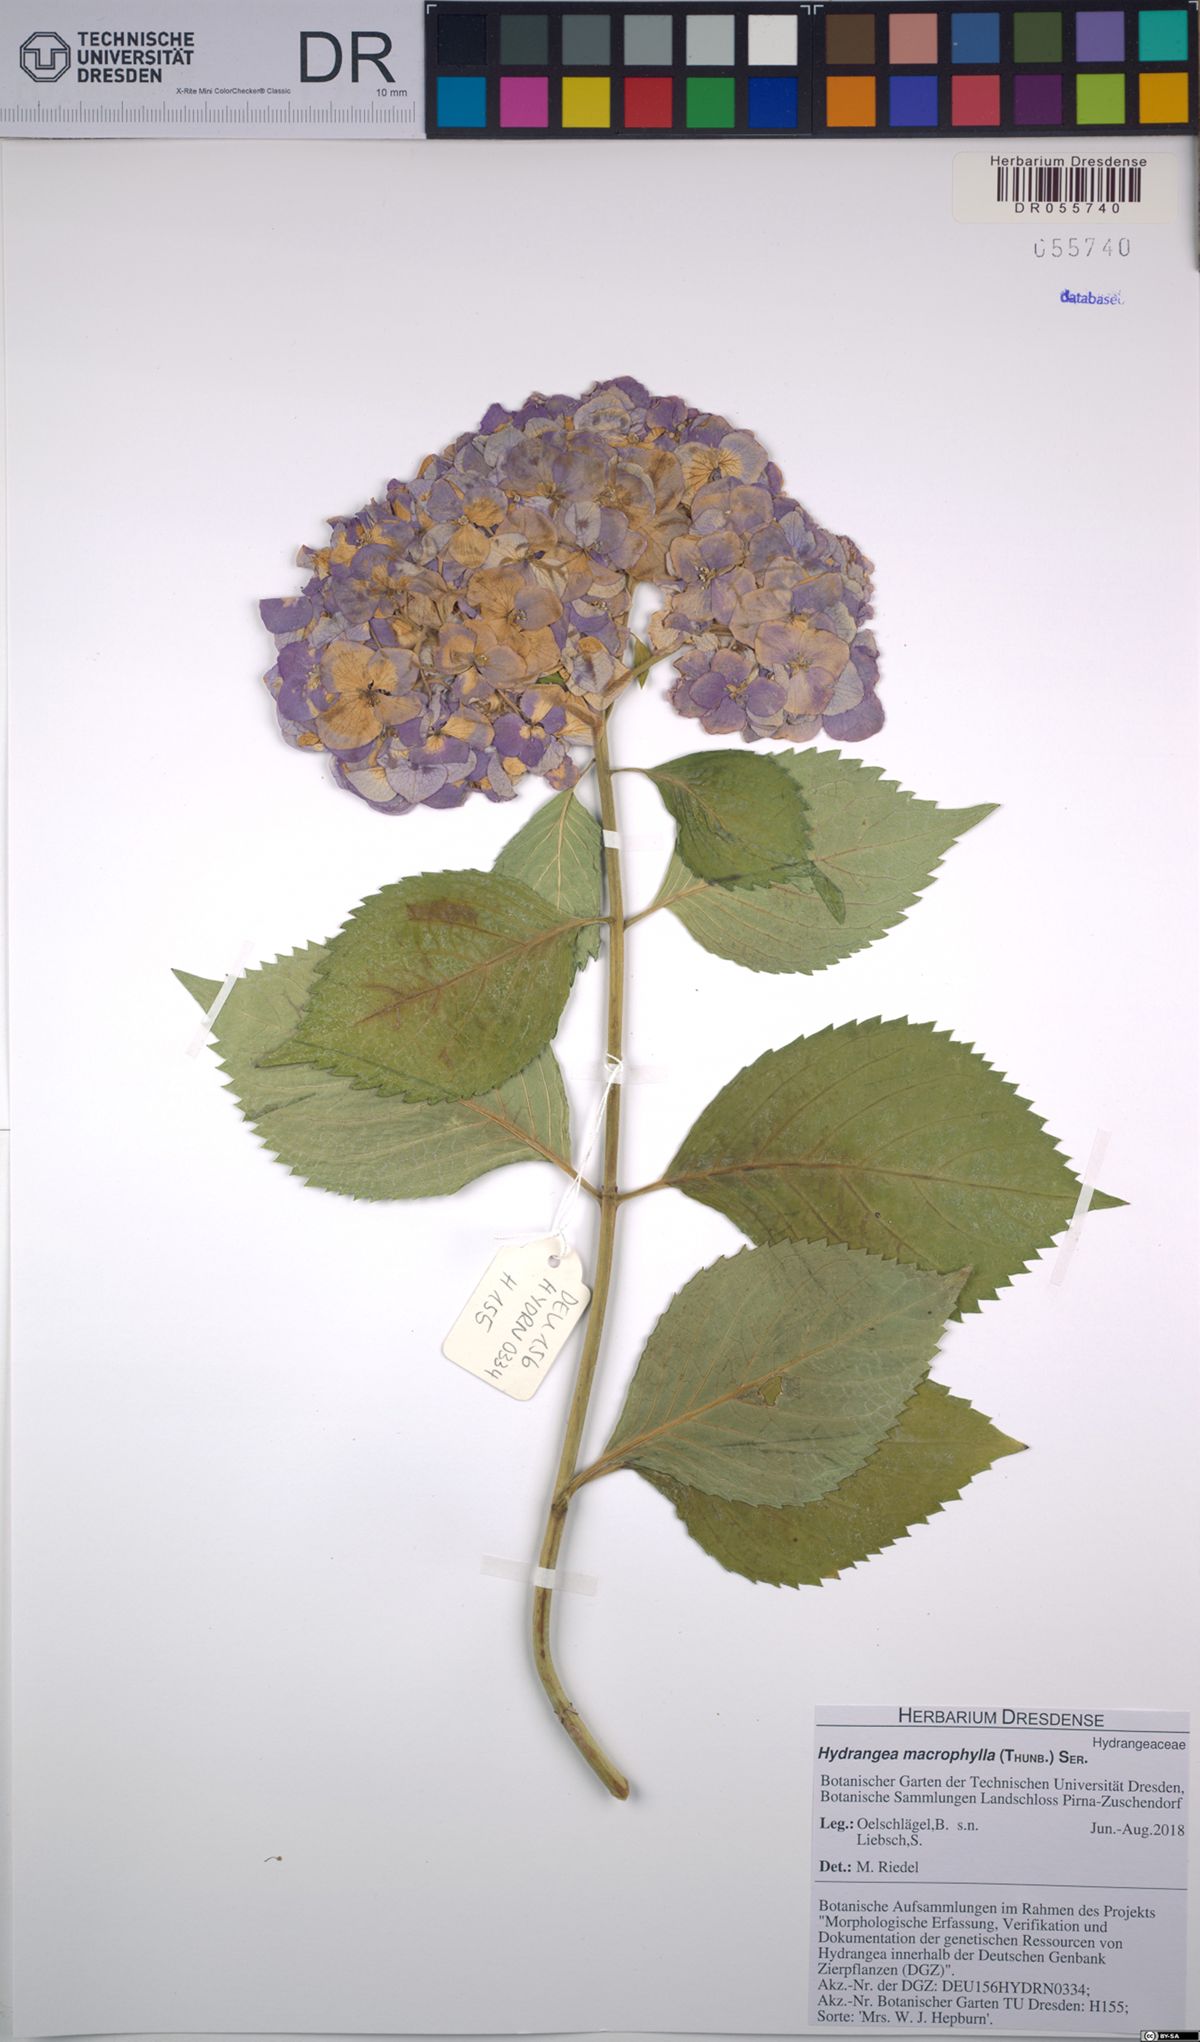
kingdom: Plantae
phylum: Tracheophyta
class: Magnoliopsida
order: Cornales
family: Hydrangeaceae
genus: Hydrangea
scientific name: Hydrangea macrophylla
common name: Hydrangea
